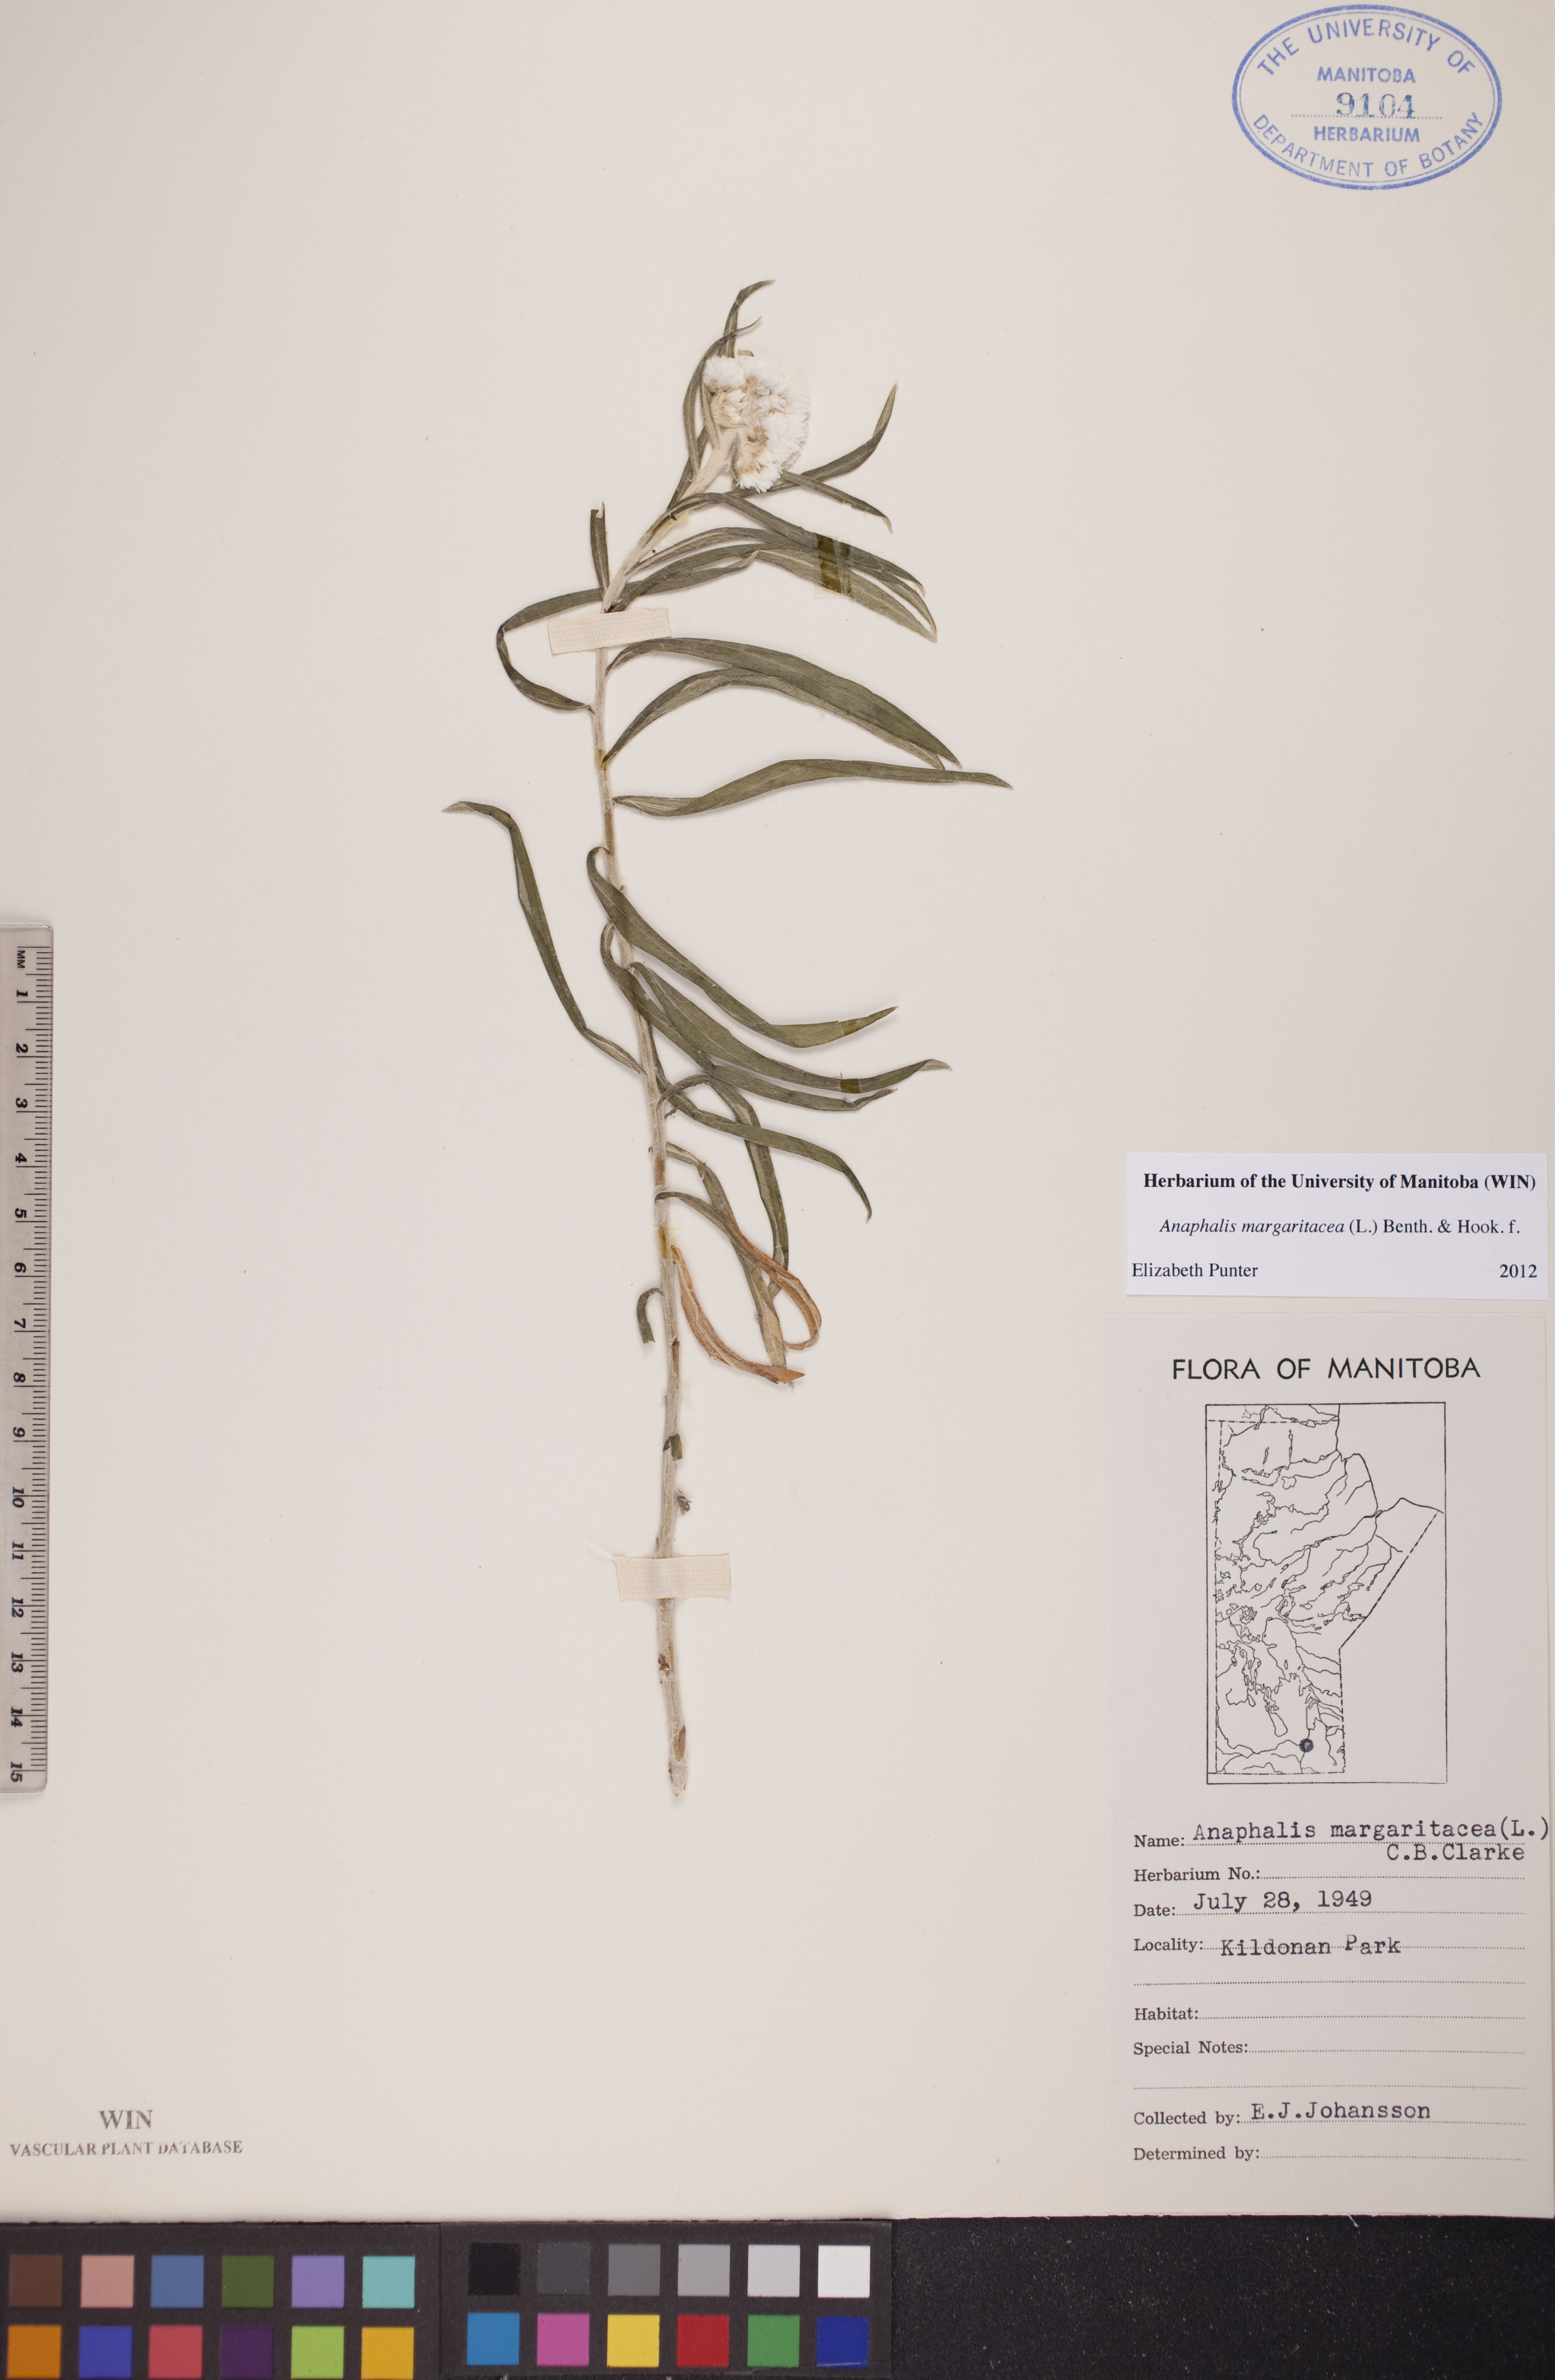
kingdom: Plantae
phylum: Tracheophyta
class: Magnoliopsida
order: Asterales
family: Asteraceae
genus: Anaphalis
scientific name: Anaphalis margaritacea
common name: Pearly everlasting
